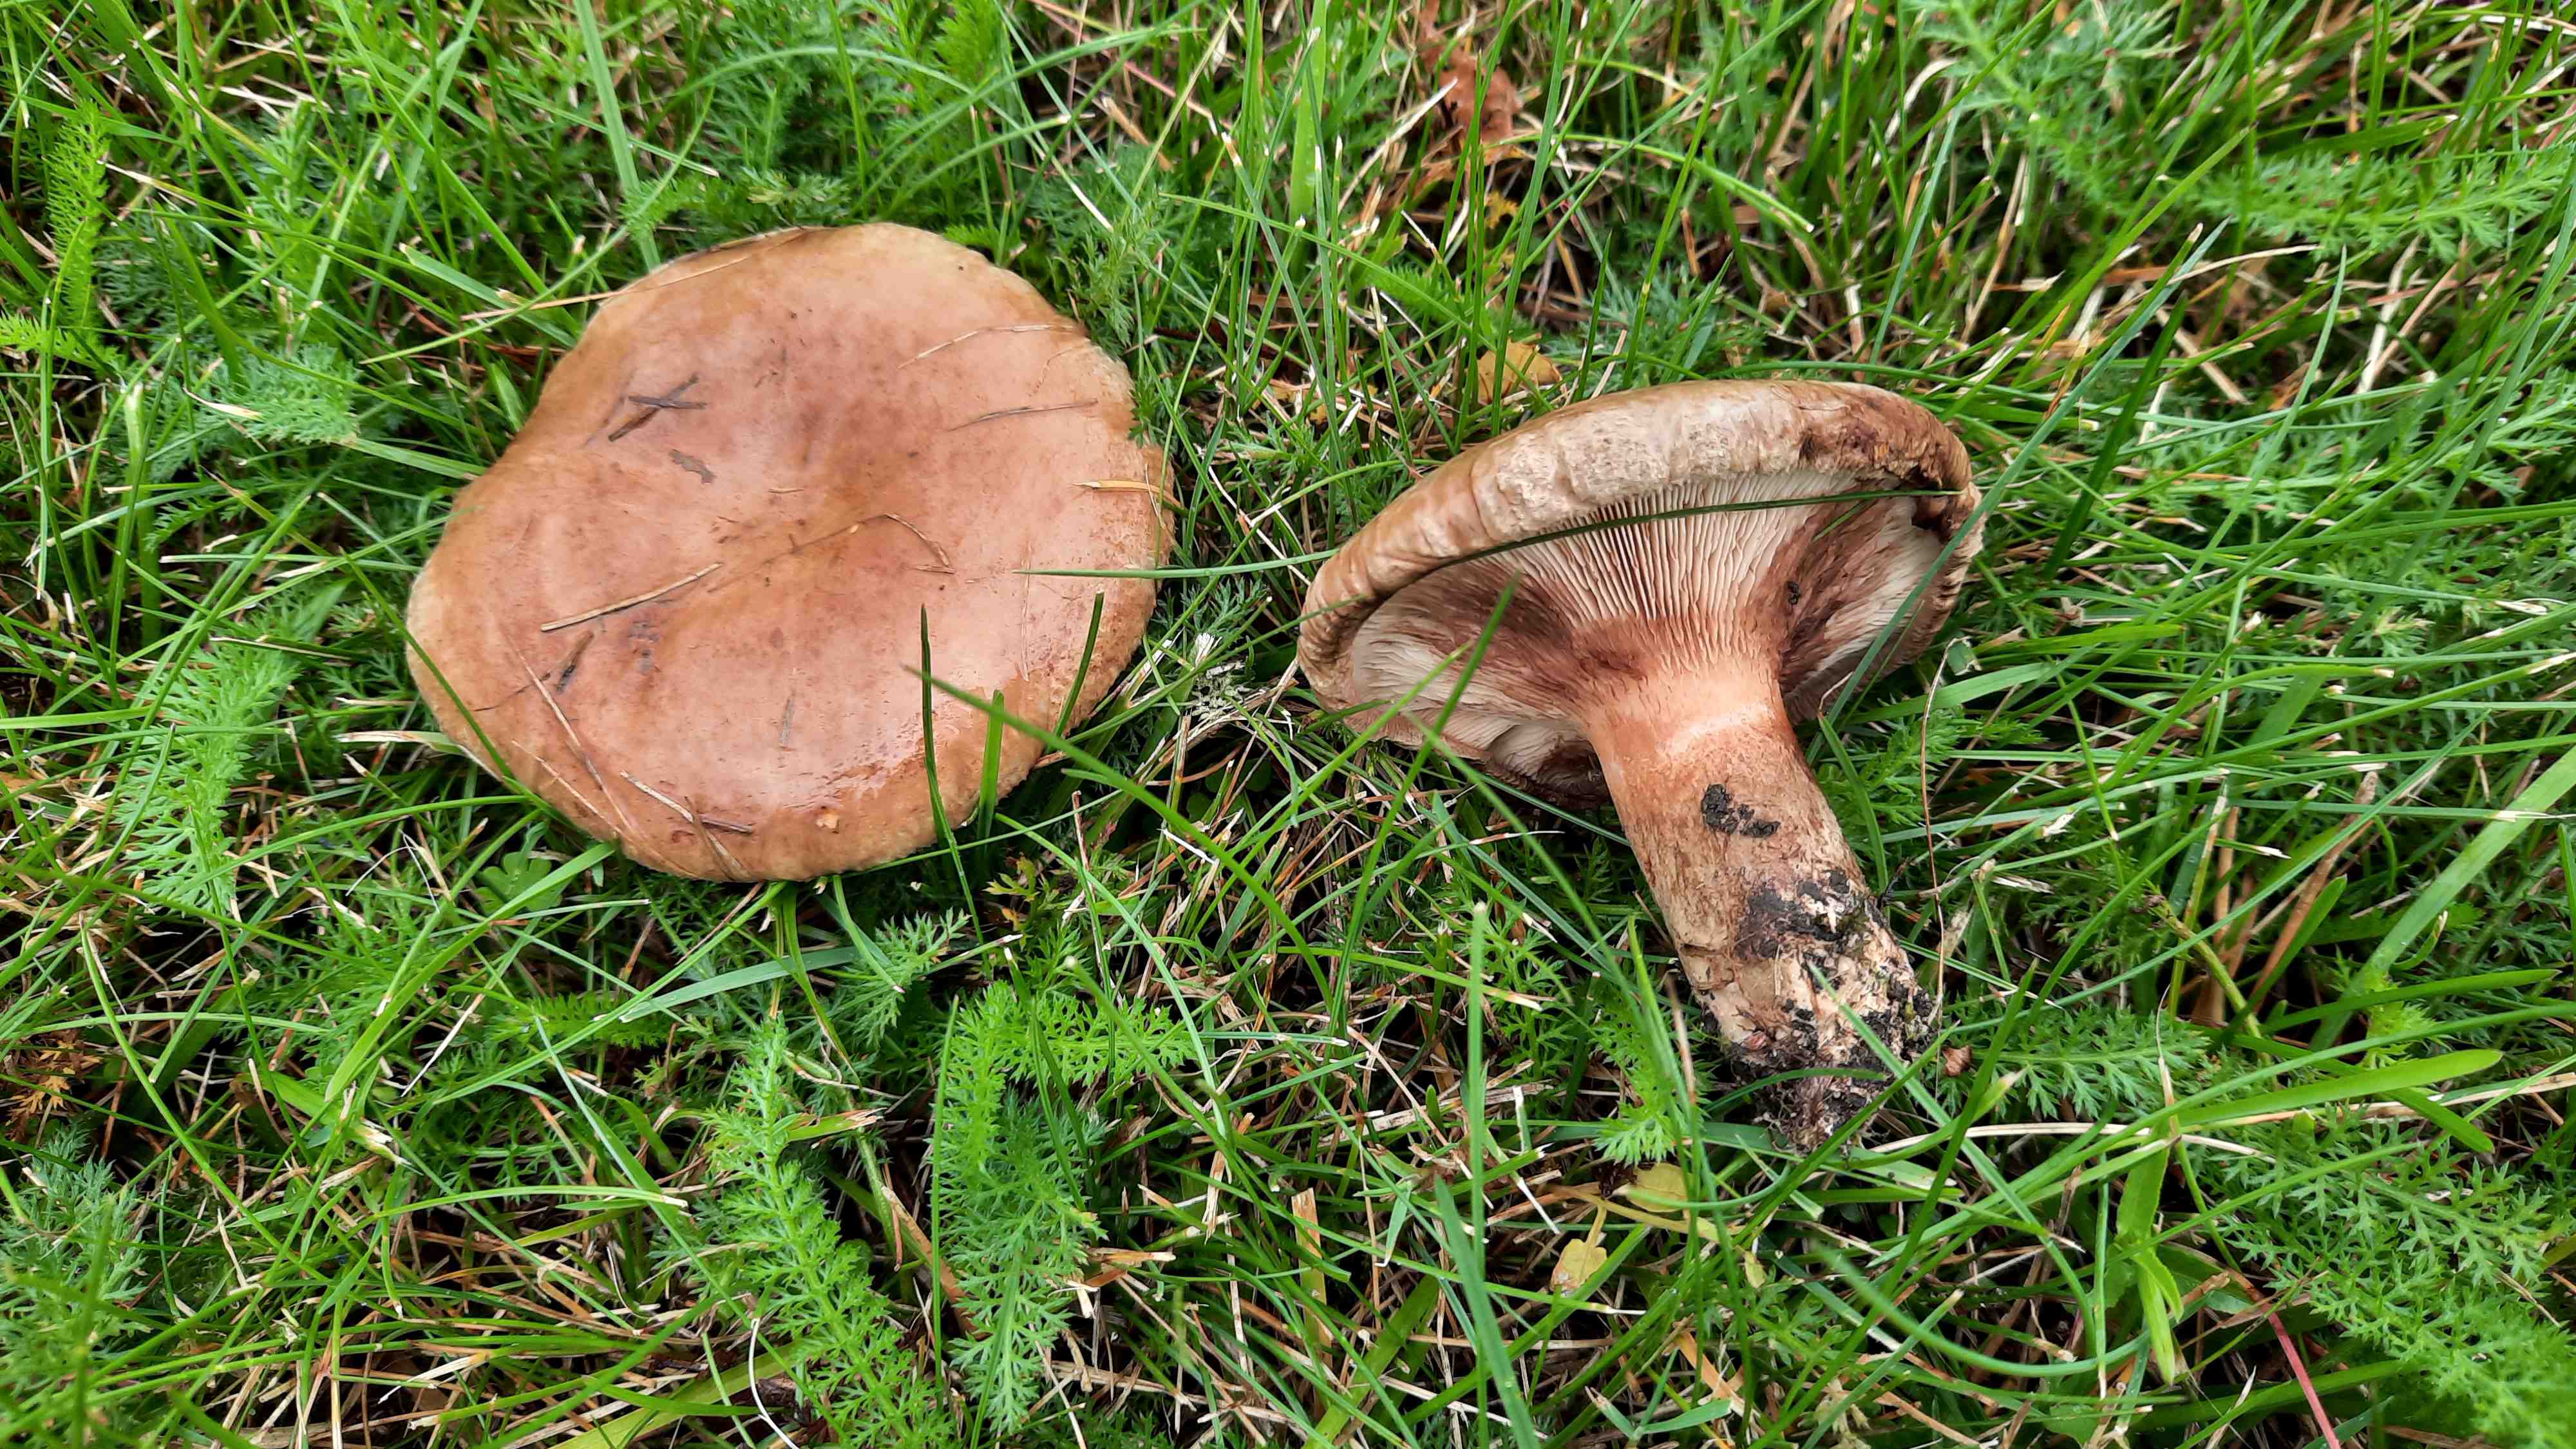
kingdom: Fungi
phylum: Basidiomycota
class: Agaricomycetes
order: Boletales
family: Paxillaceae
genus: Paxillus
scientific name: Paxillus
